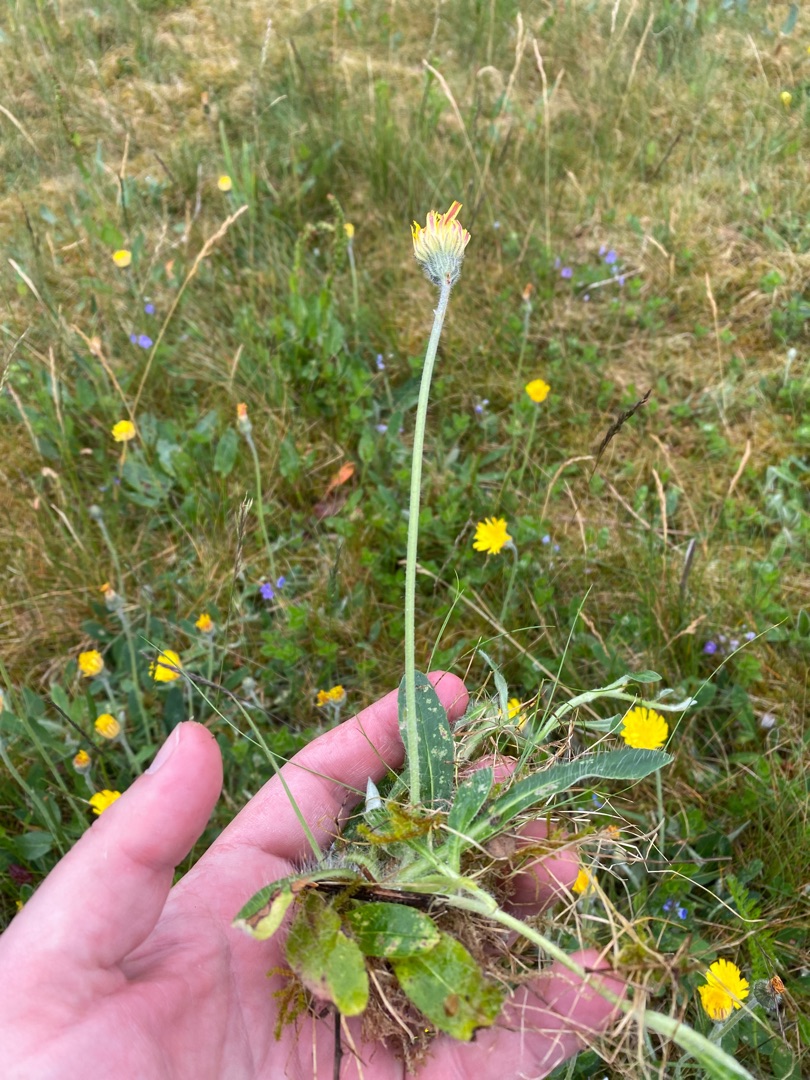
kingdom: Plantae
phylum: Tracheophyta
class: Magnoliopsida
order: Asterales
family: Asteraceae
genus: Pilosella
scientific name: Pilosella officinarum
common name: Håret høgeurt
